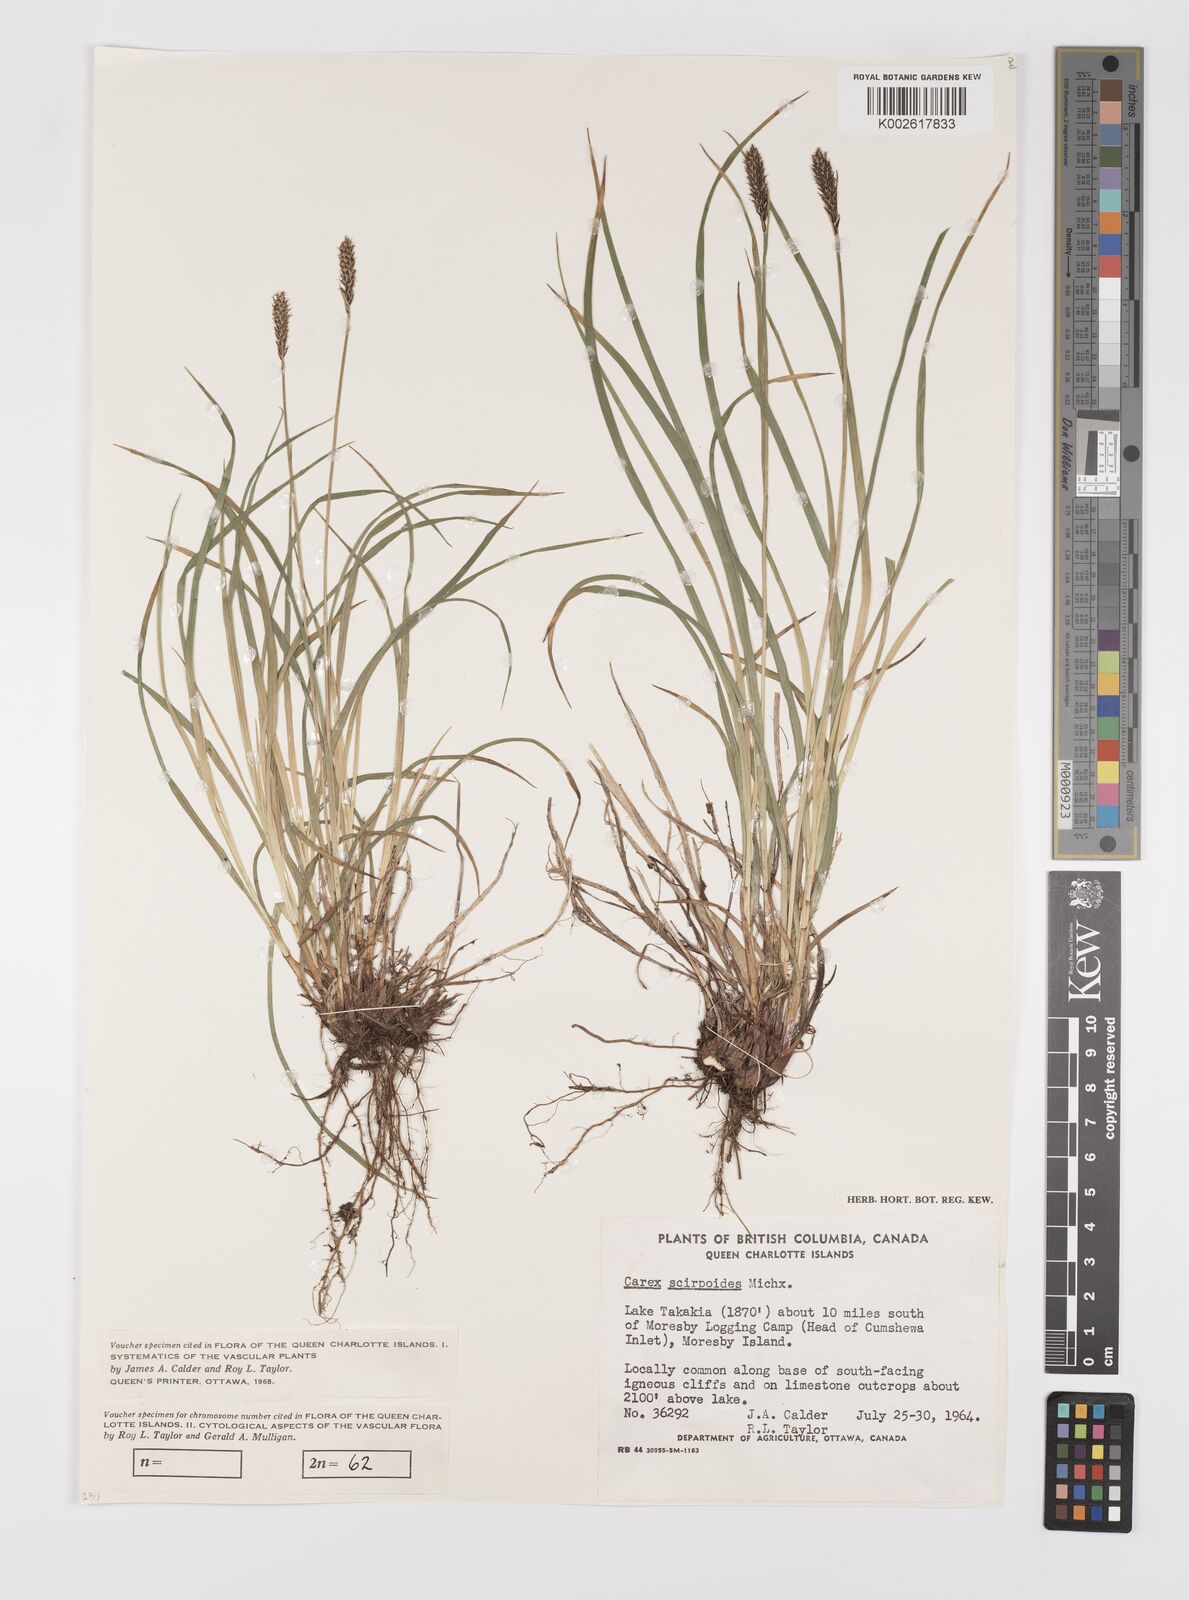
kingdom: Plantae
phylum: Tracheophyta
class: Liliopsida
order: Poales
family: Cyperaceae
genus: Carex
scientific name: Carex scirpoidea
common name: Canada single-spike sedge
